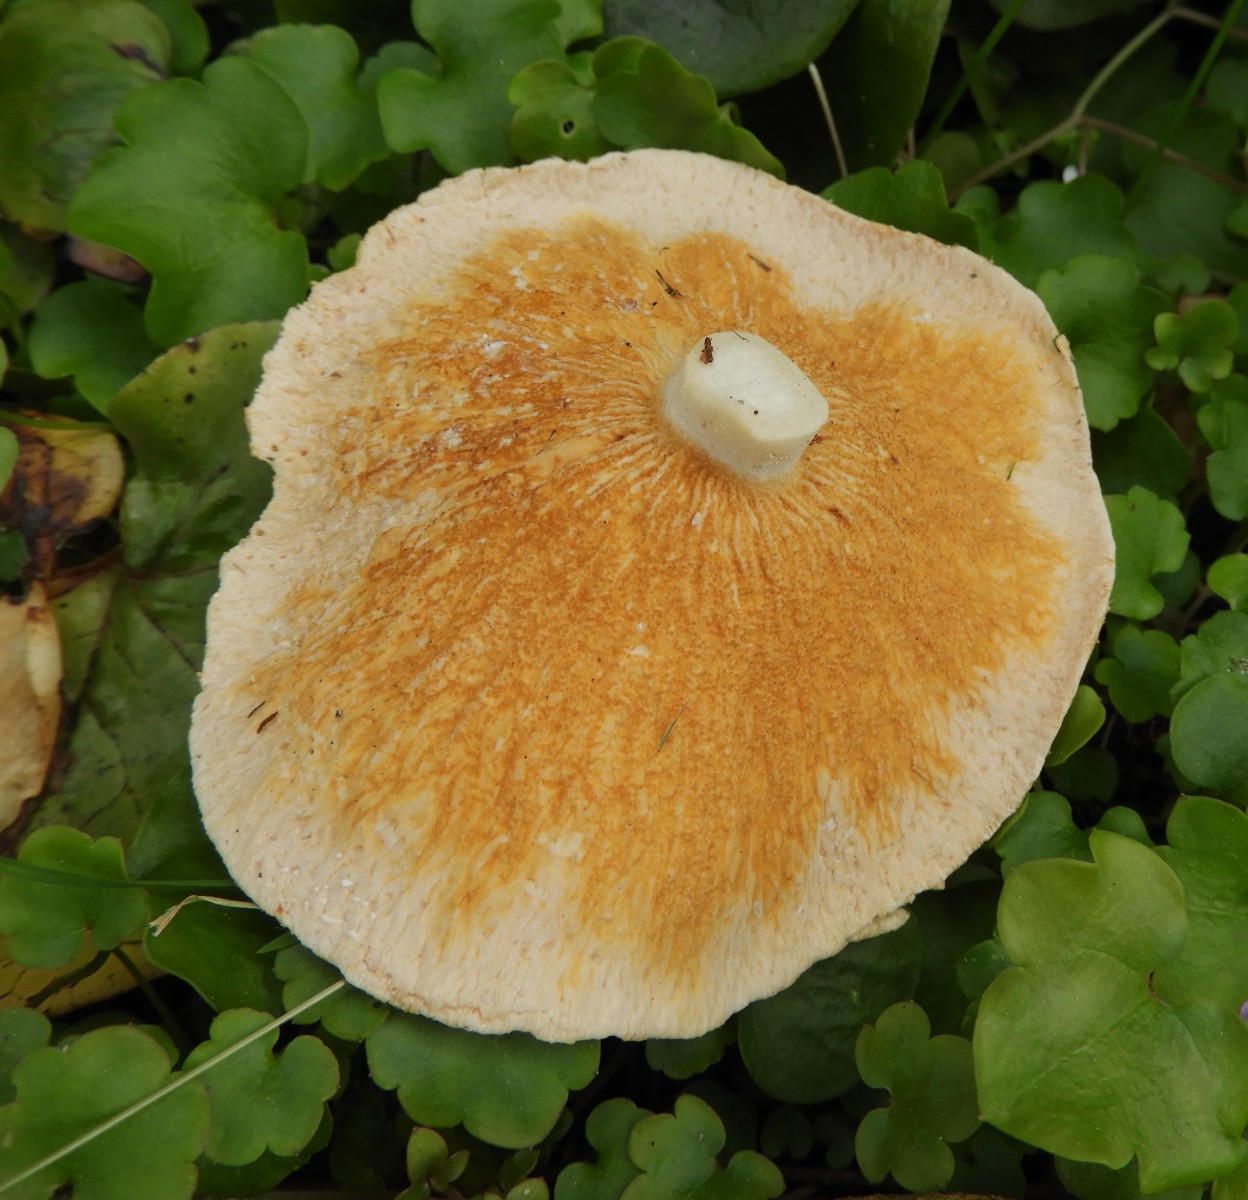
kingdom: Fungi
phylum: Ascomycota
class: Sordariomycetes
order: Hypocreales
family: Hypocreaceae
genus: Hypomyces
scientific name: Hypomyces aurantius
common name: almindelig snylteskorpe
